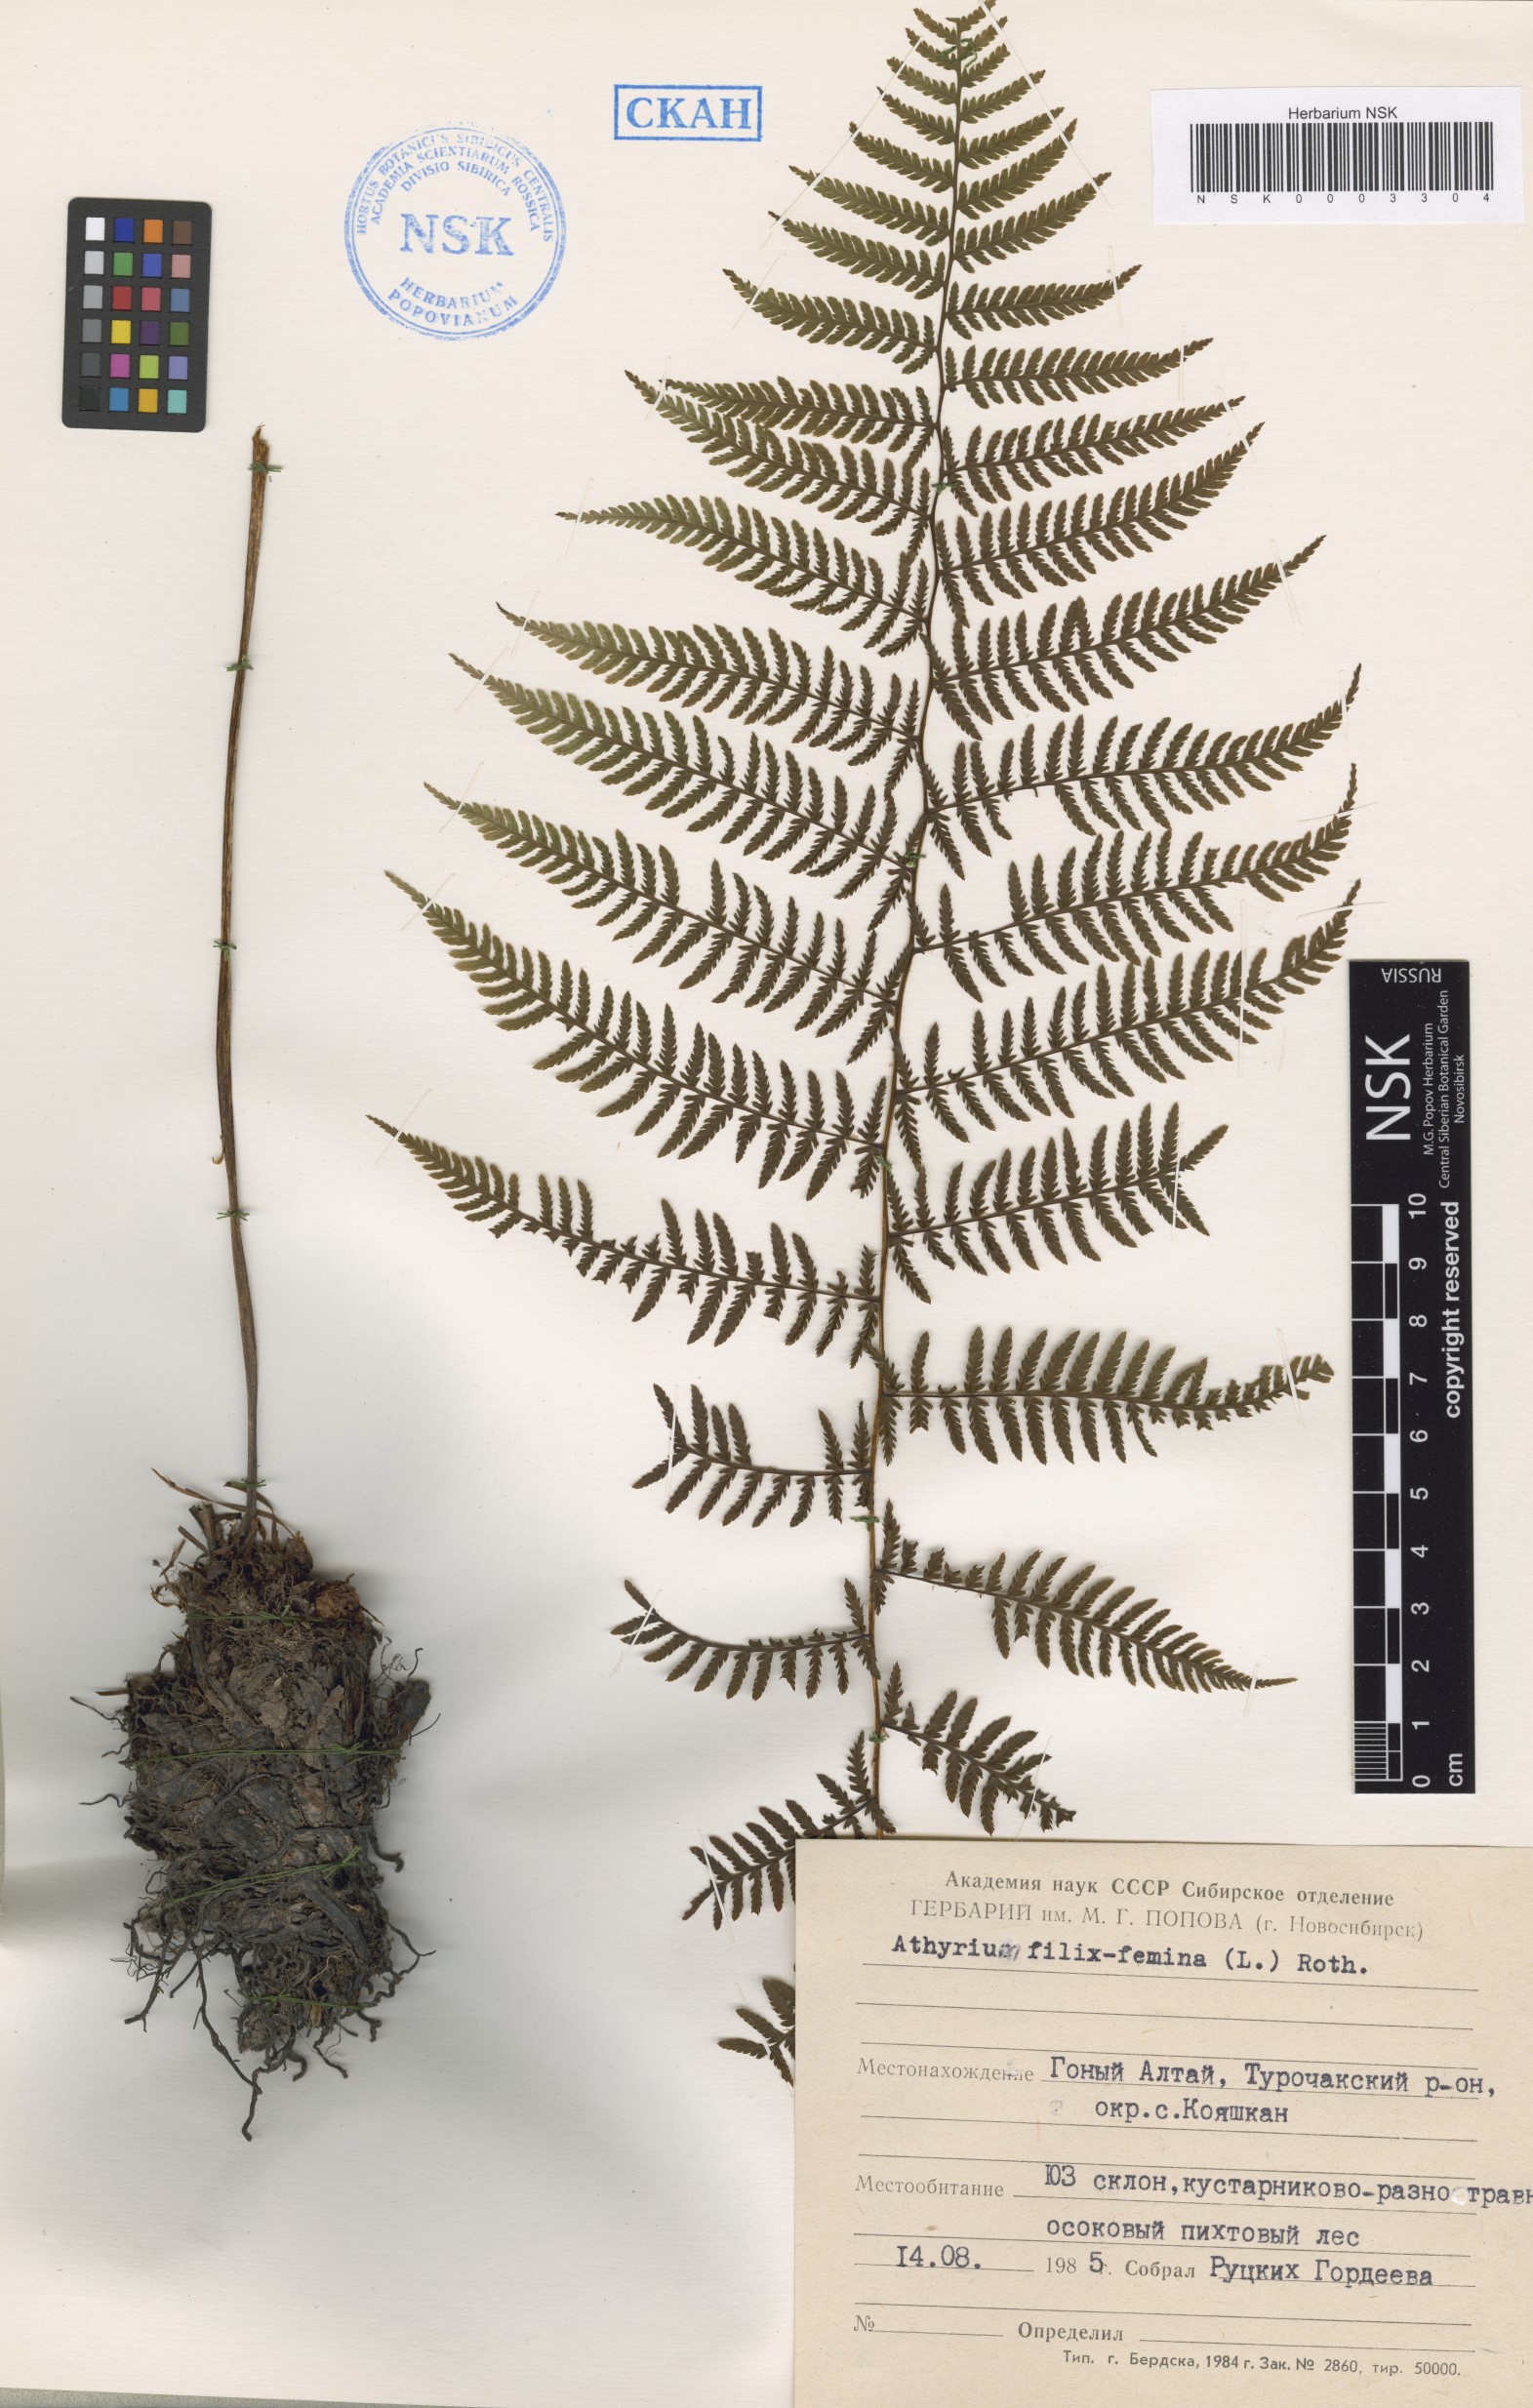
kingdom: Plantae
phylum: Tracheophyta
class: Polypodiopsida
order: Polypodiales
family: Athyriaceae
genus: Athyrium
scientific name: Athyrium filix-femina
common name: Lady fern
